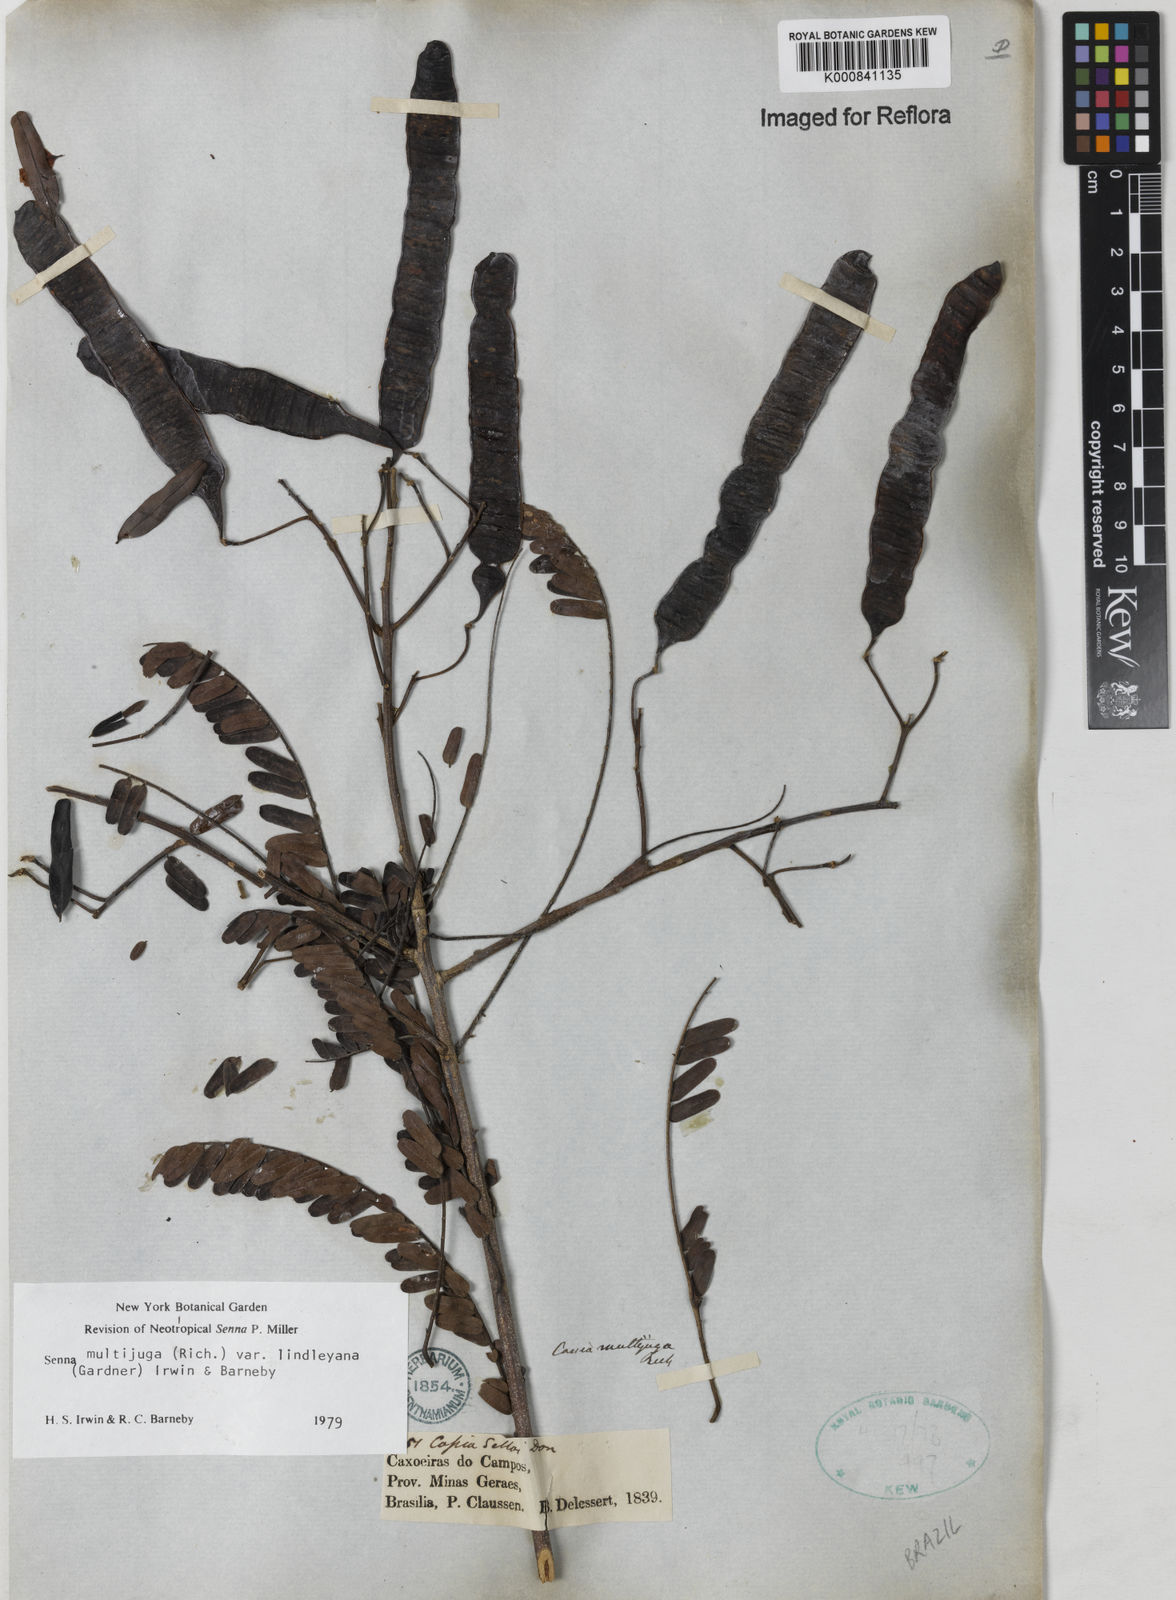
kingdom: Plantae
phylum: Tracheophyta
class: Magnoliopsida
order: Fabales
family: Fabaceae
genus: Senna
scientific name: Senna multijuga
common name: False sicklepod
